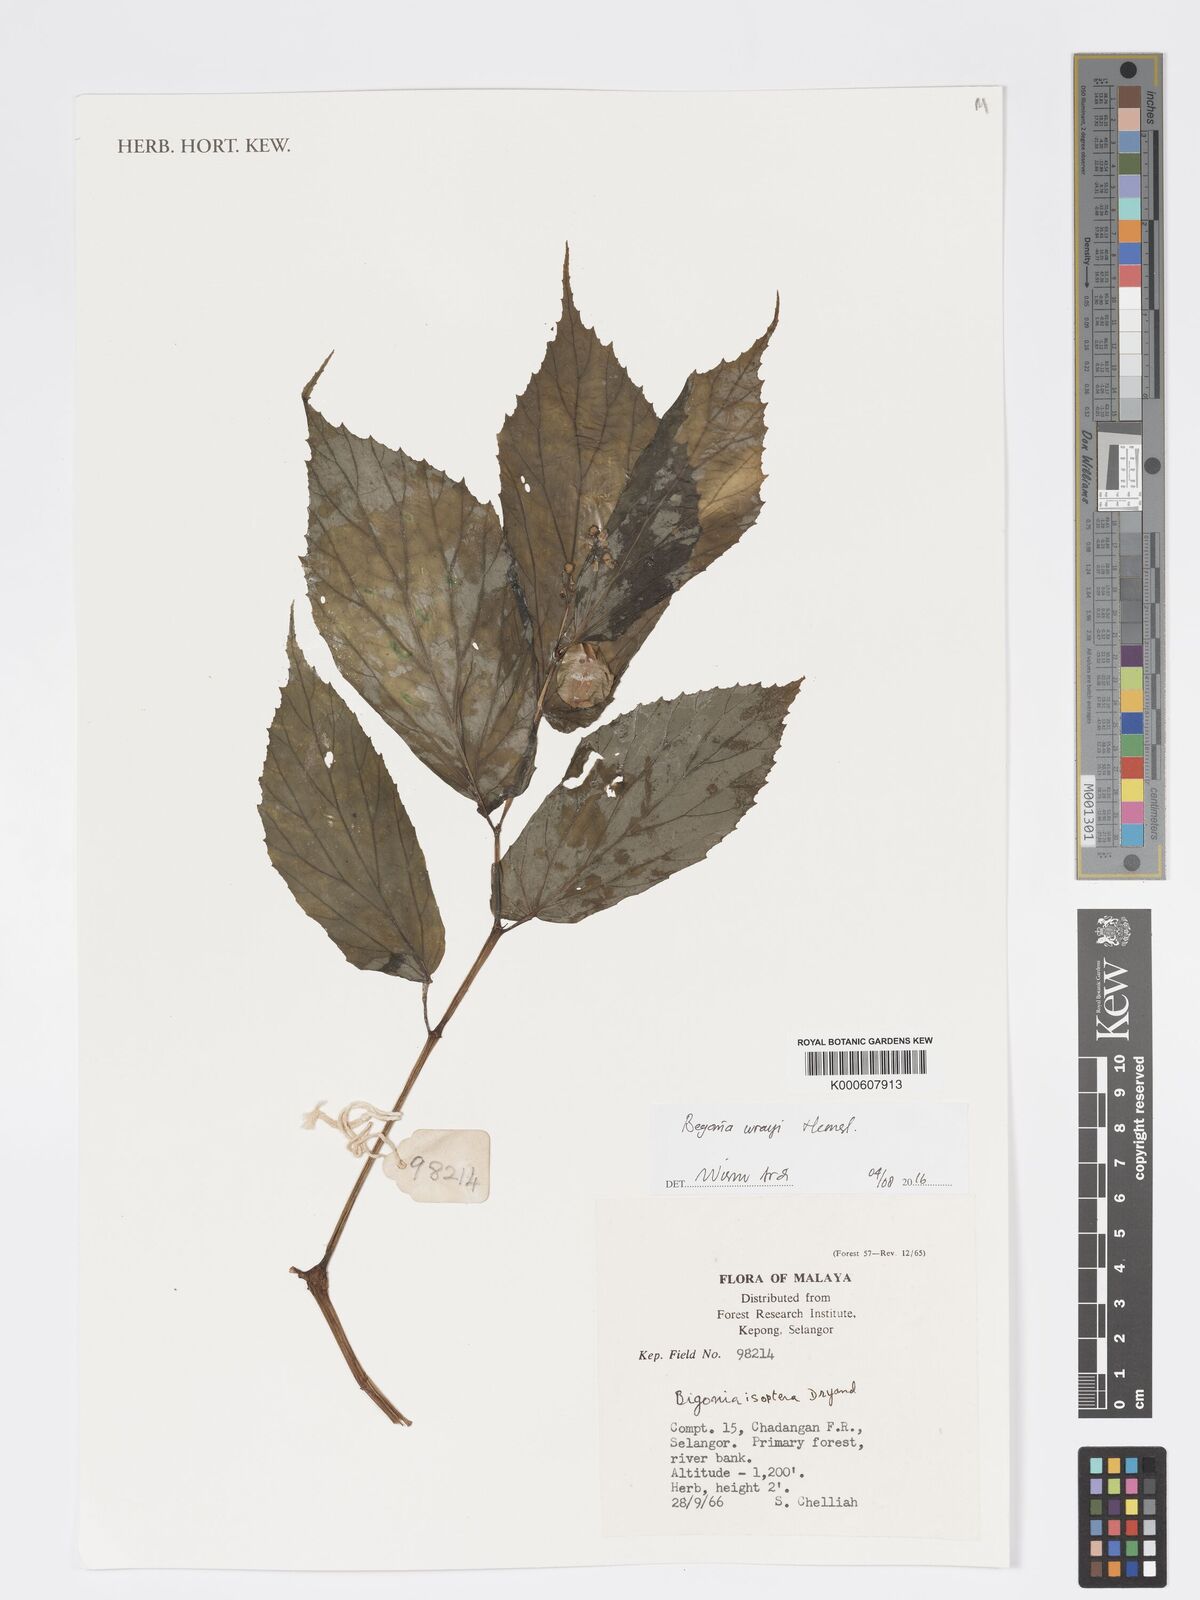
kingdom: Plantae
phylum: Tracheophyta
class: Magnoliopsida
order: Cucurbitales
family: Begoniaceae
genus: Begonia
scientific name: Begonia wrayi
